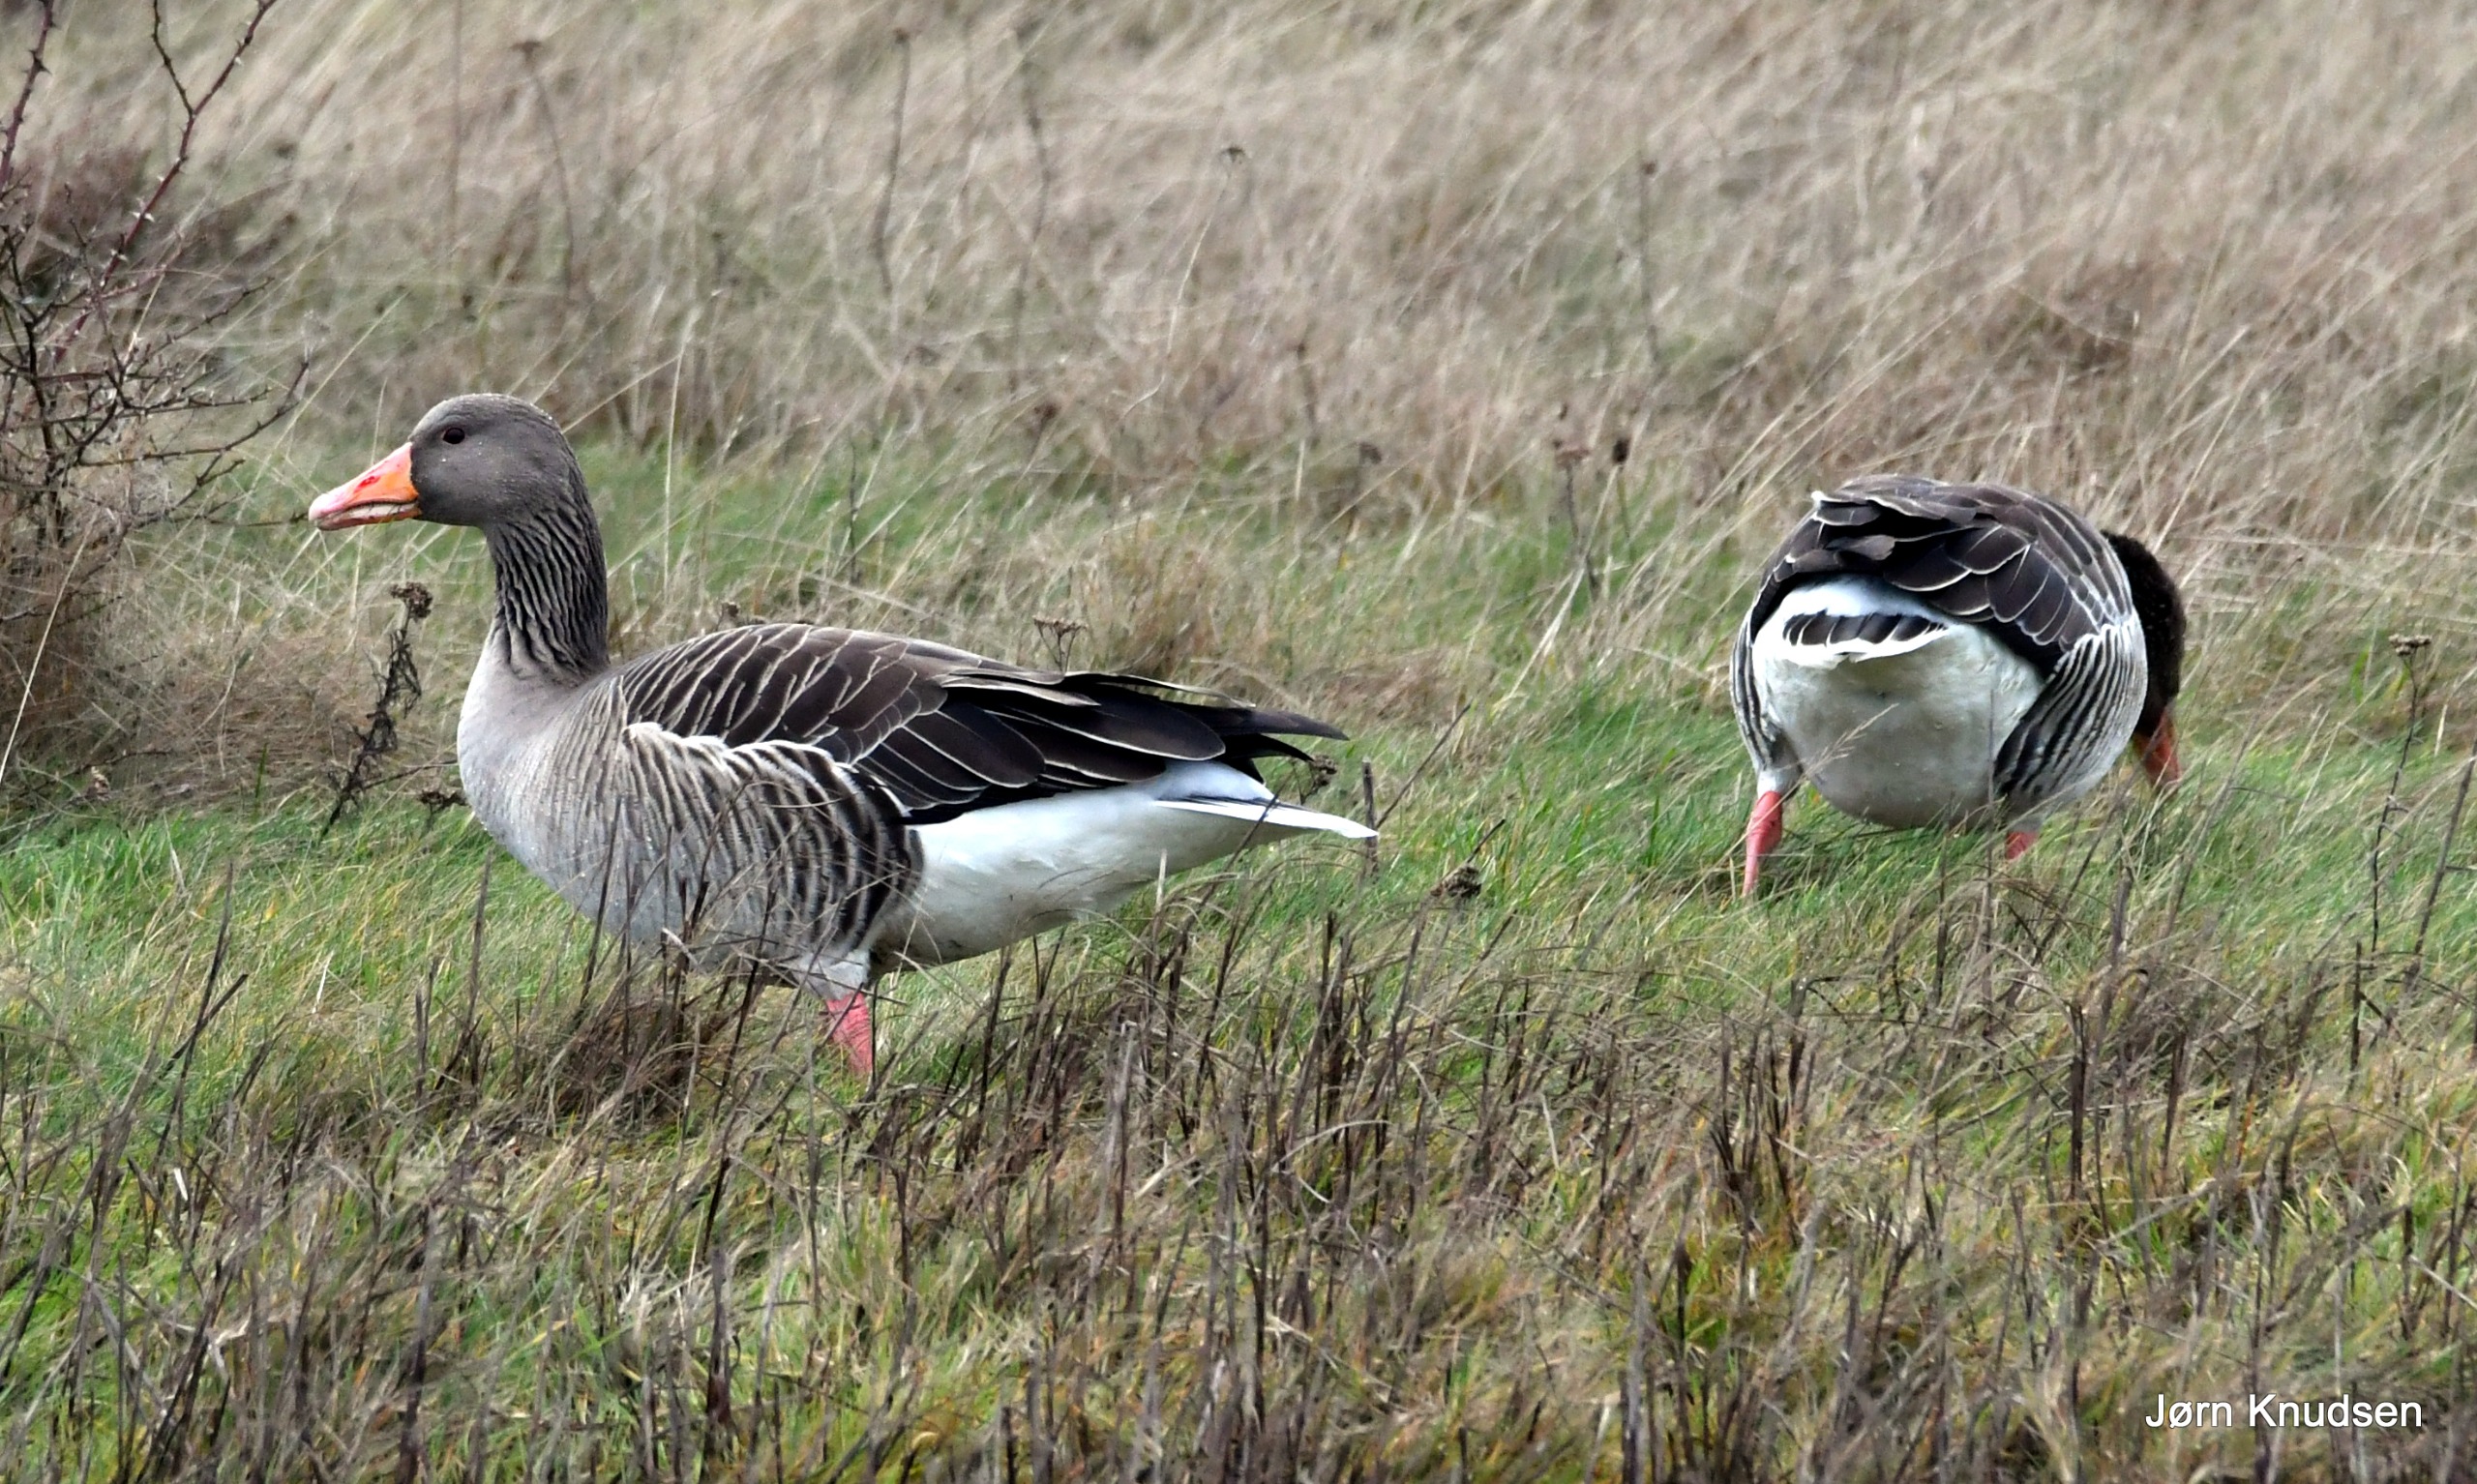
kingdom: Animalia
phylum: Chordata
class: Aves
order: Anseriformes
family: Anatidae
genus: Anser
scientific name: Anser anser
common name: Grågås
